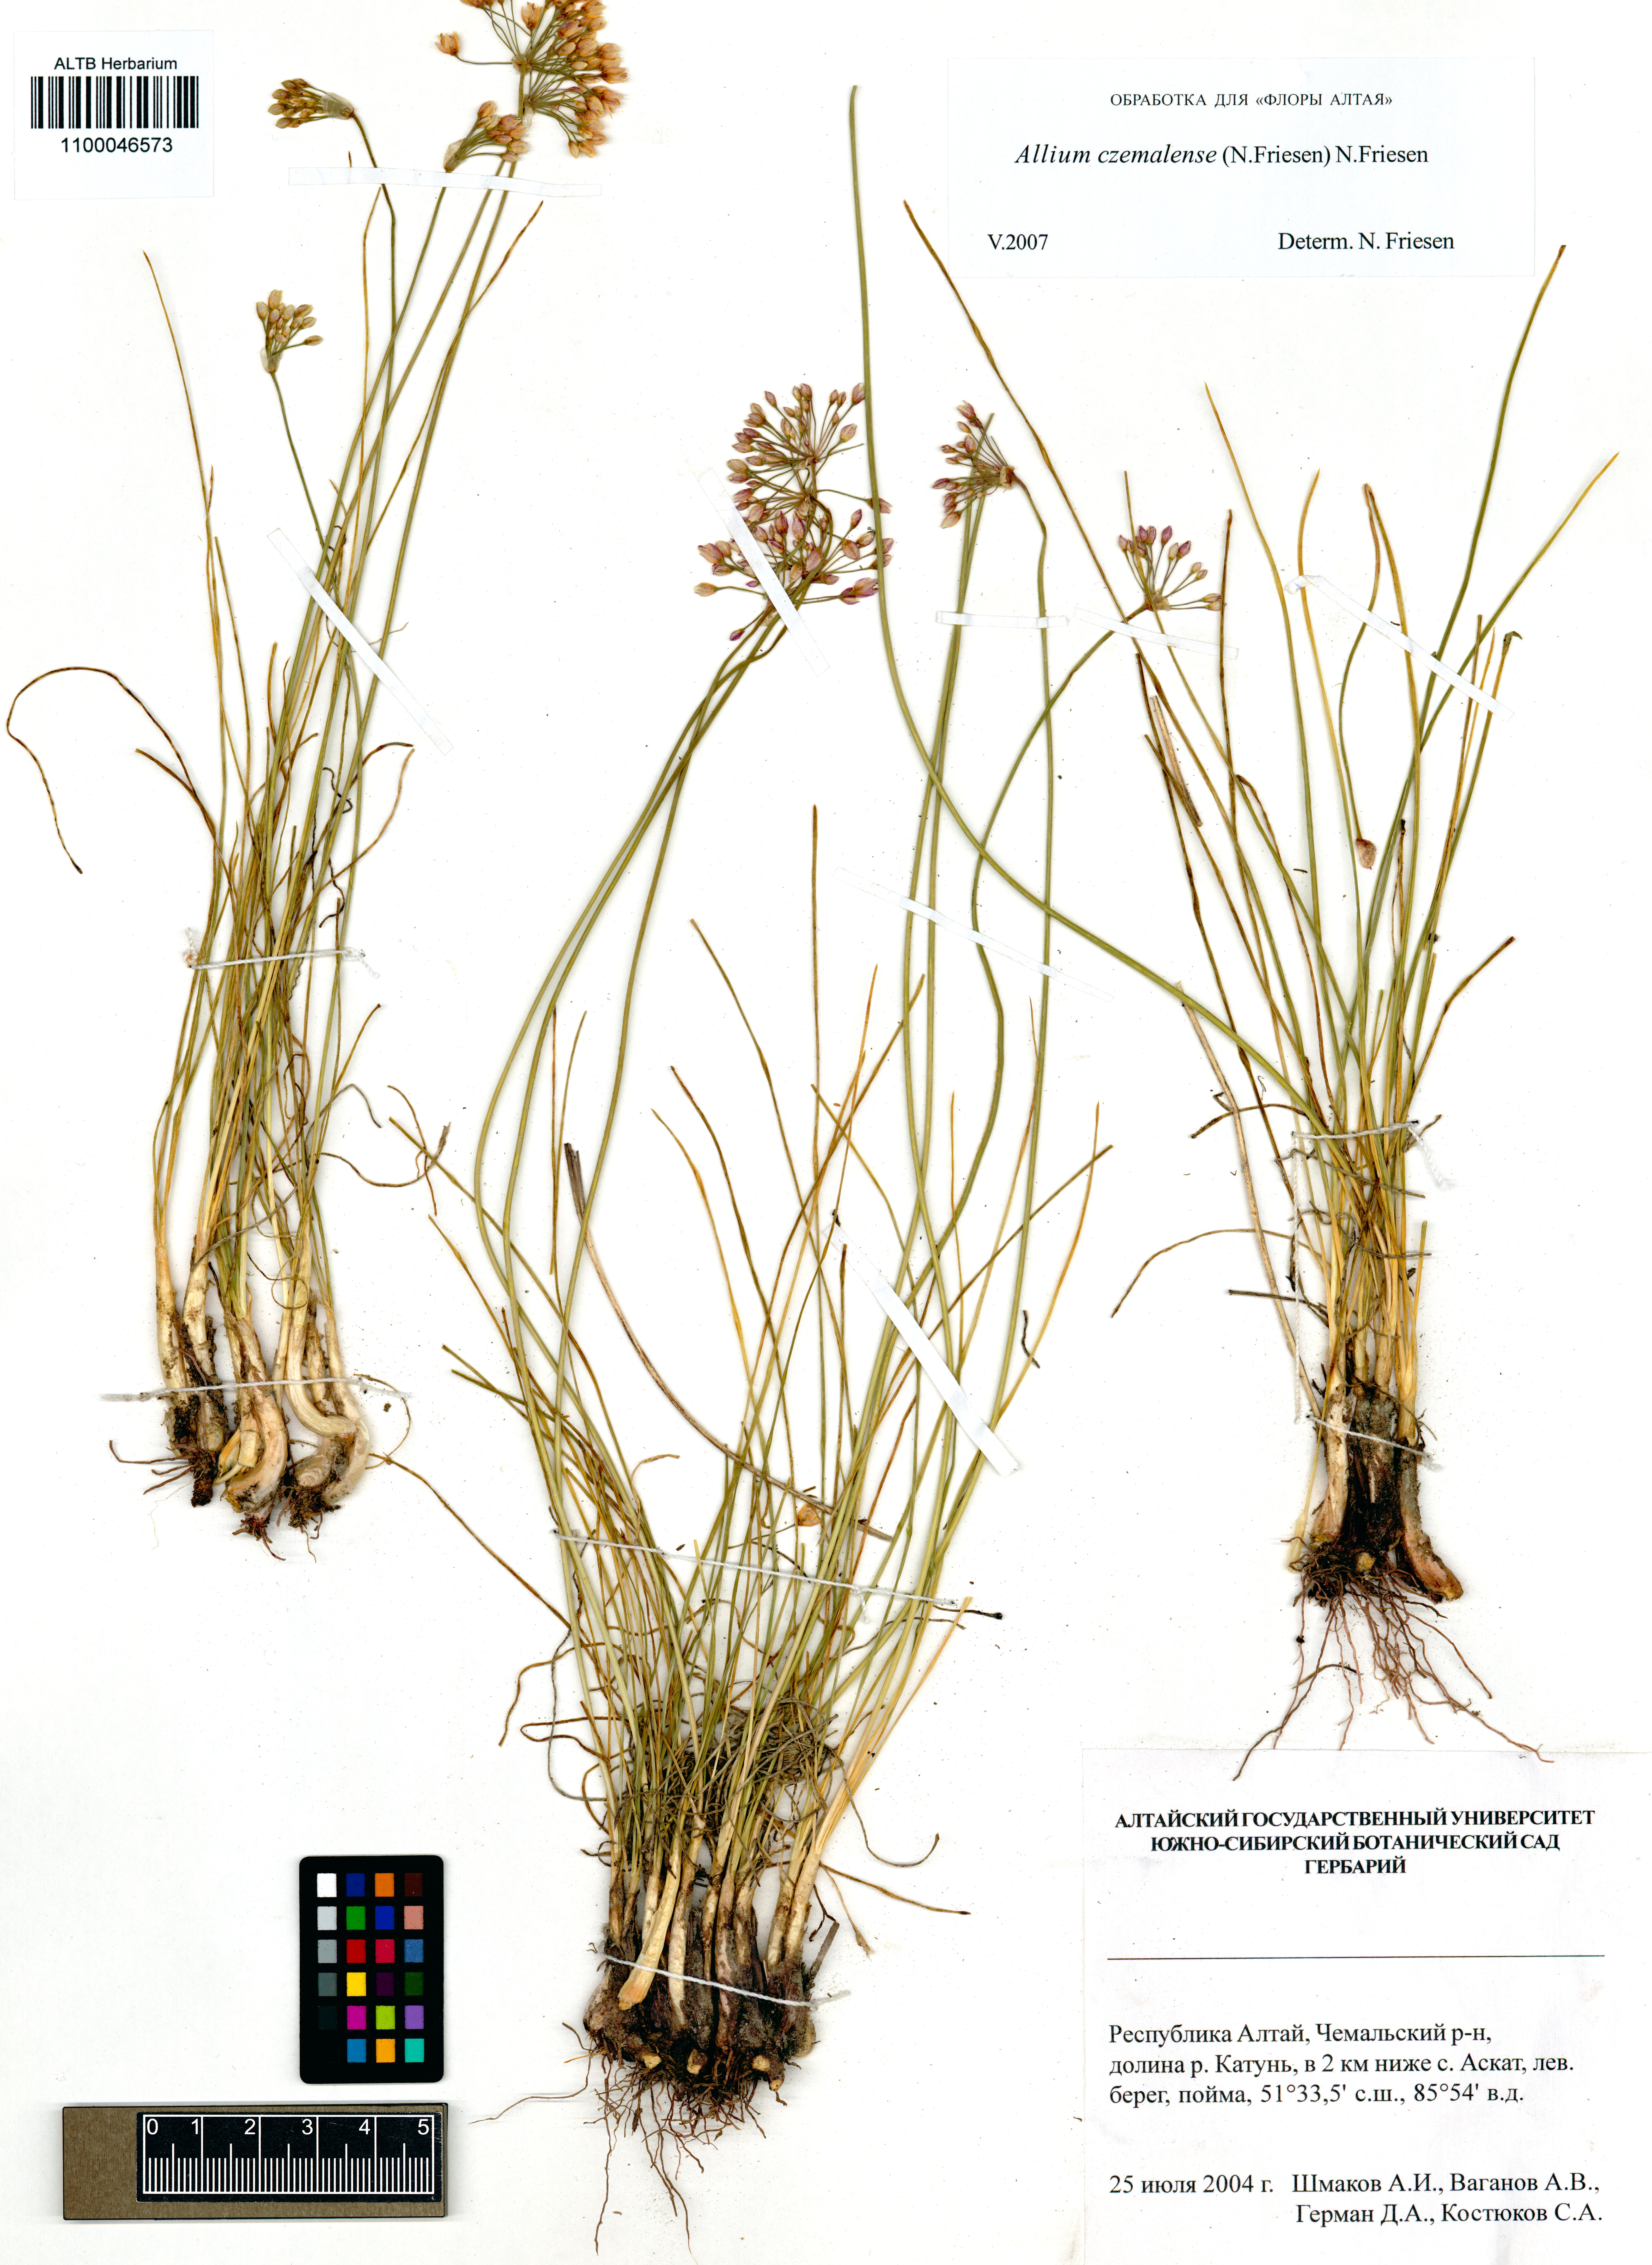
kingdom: Plantae
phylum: Tracheophyta
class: Liliopsida
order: Asparagales
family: Amaryllidaceae
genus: Allium
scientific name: Allium
